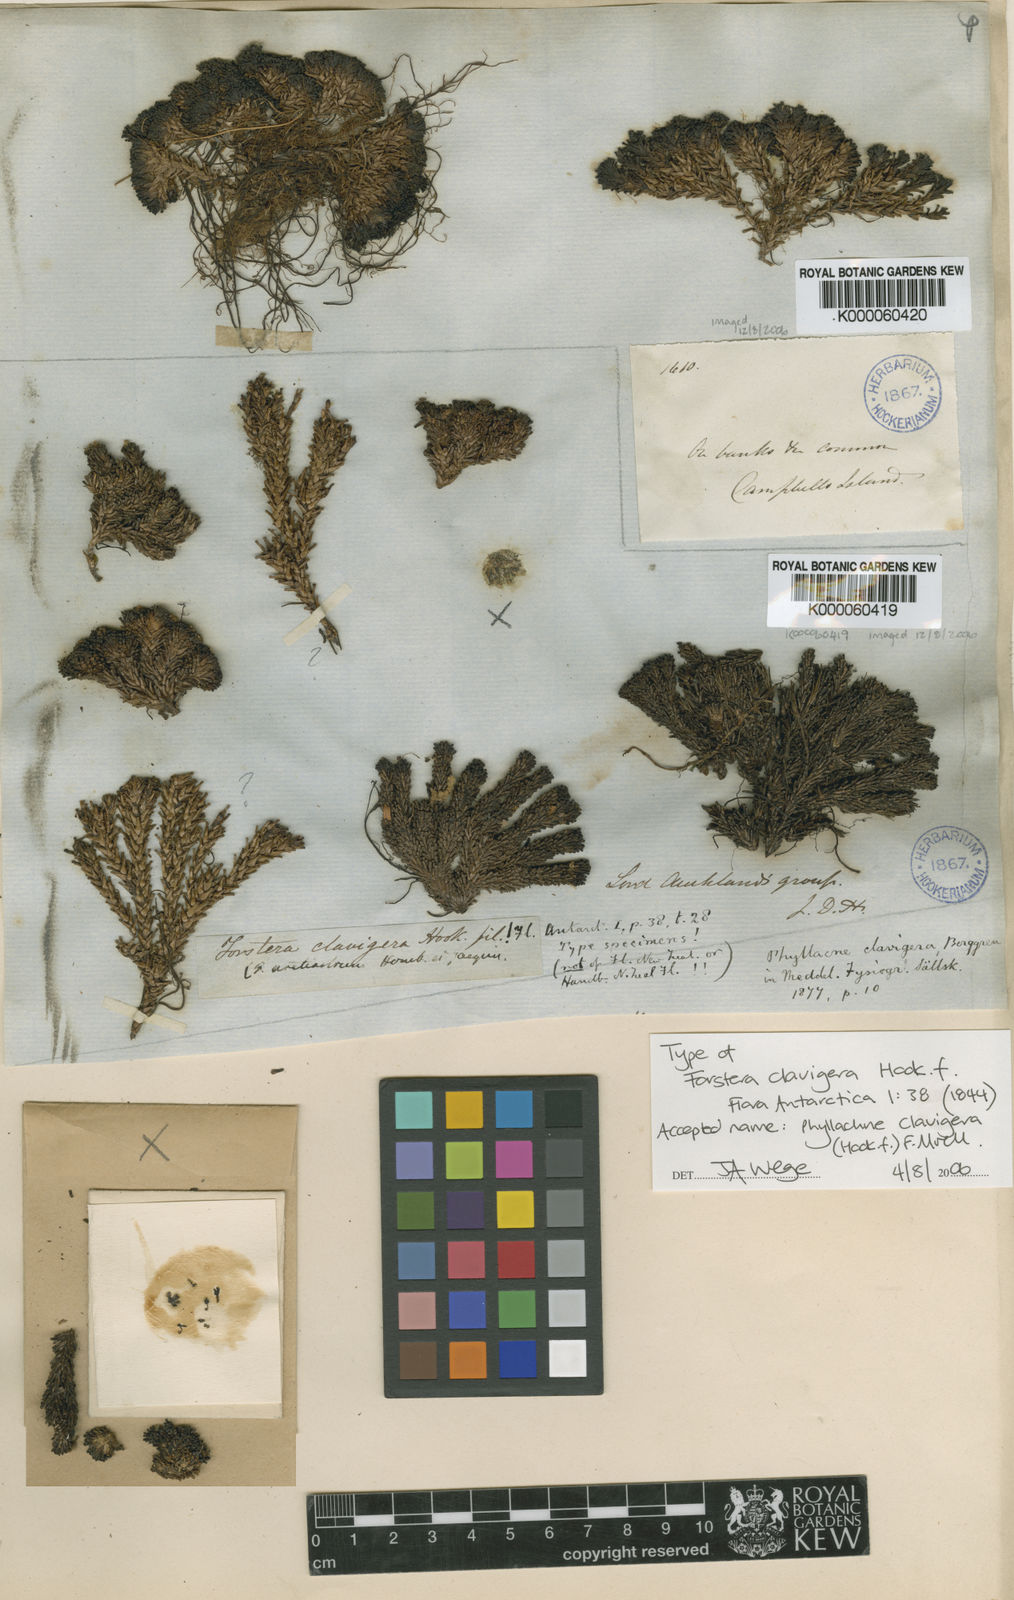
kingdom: Plantae
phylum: Tracheophyta
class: Magnoliopsida
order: Asterales
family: Stylidiaceae
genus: Phyllachne
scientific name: Phyllachne clavigera
